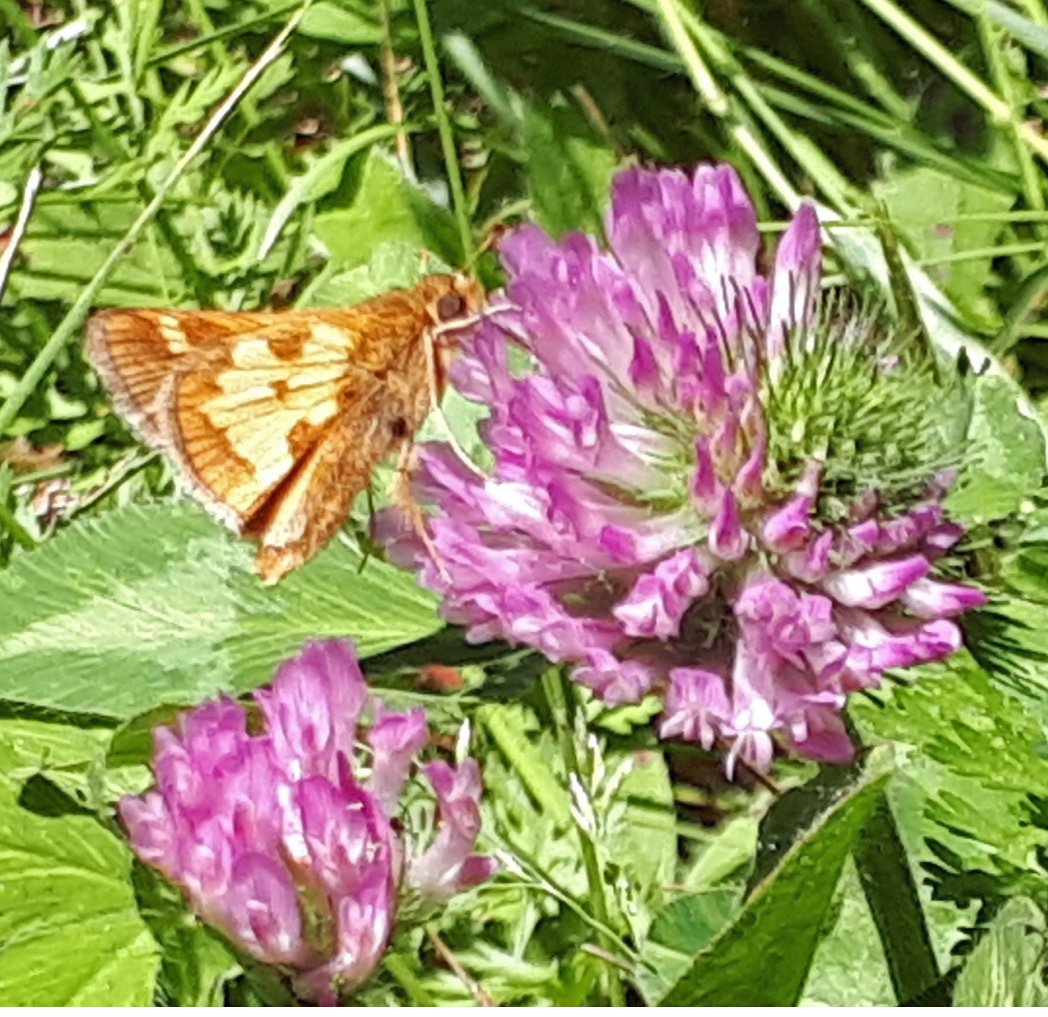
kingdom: Animalia
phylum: Arthropoda
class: Insecta
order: Lepidoptera
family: Hesperiidae
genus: Polites
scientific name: Polites coras
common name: Peck's Skipper
